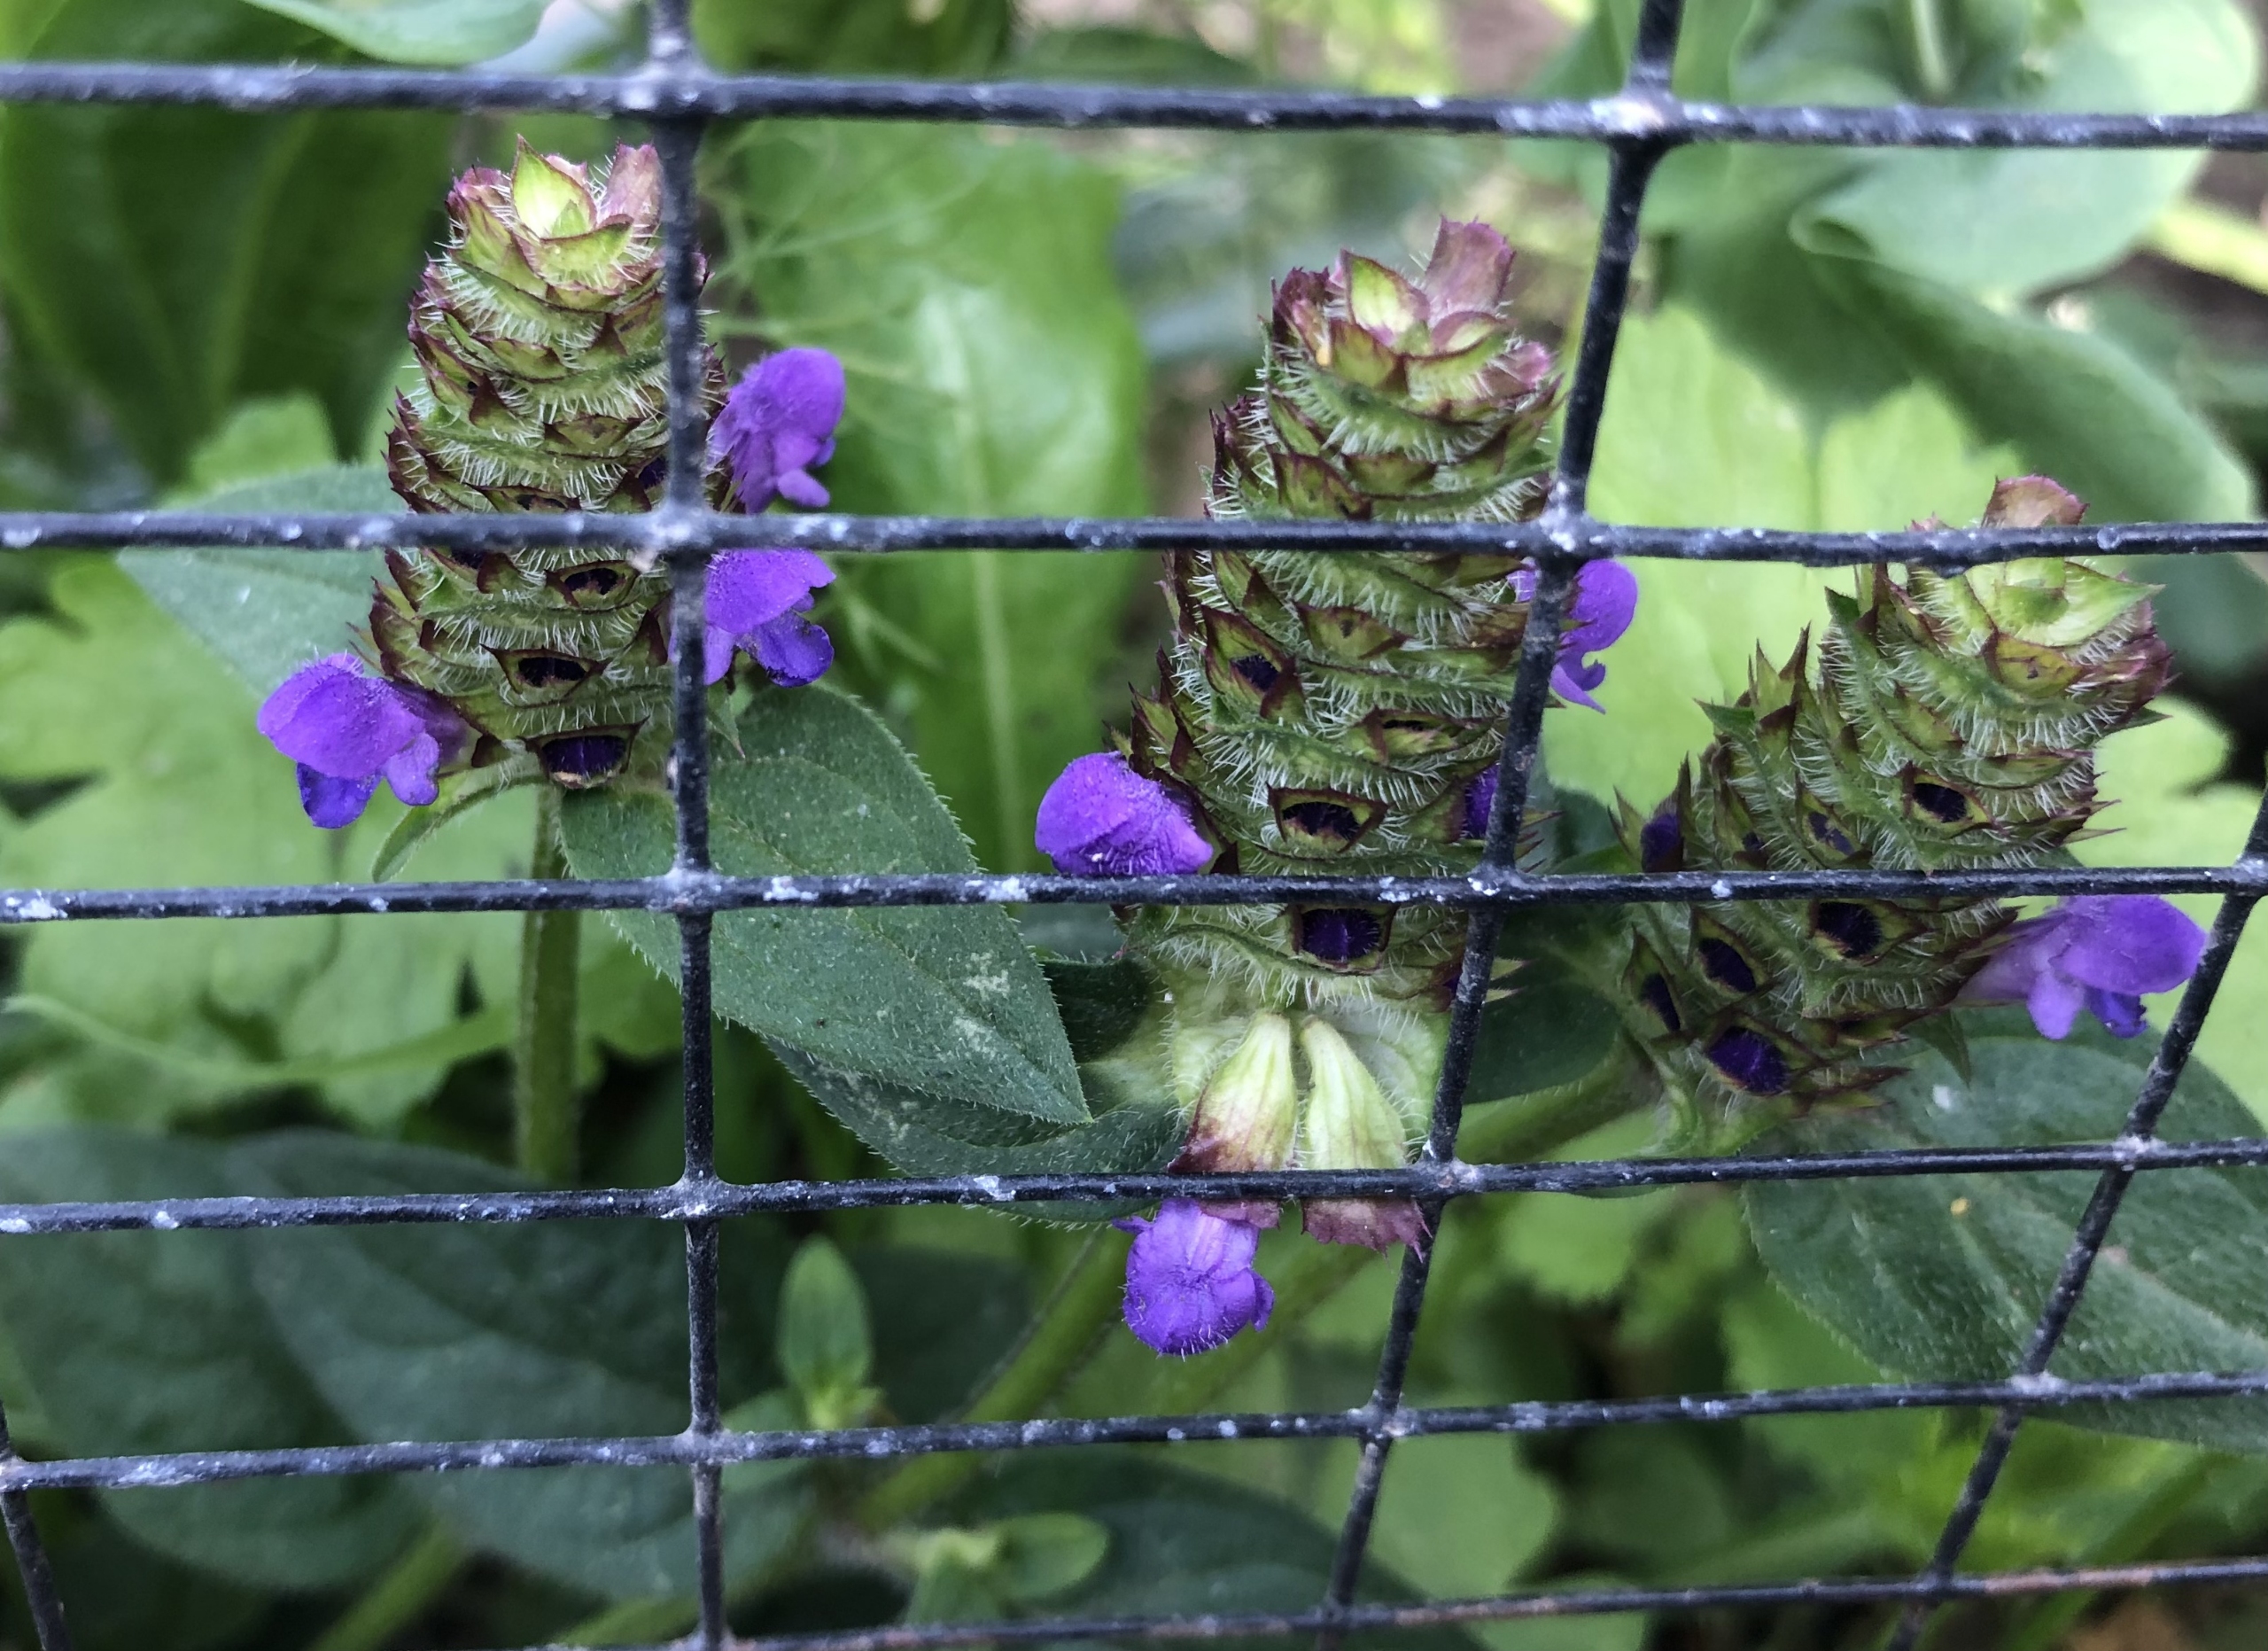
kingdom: Plantae
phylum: Tracheophyta
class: Magnoliopsida
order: Lamiales
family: Lamiaceae
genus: Prunella
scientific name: Prunella vulgaris
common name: Almindelig brunelle
